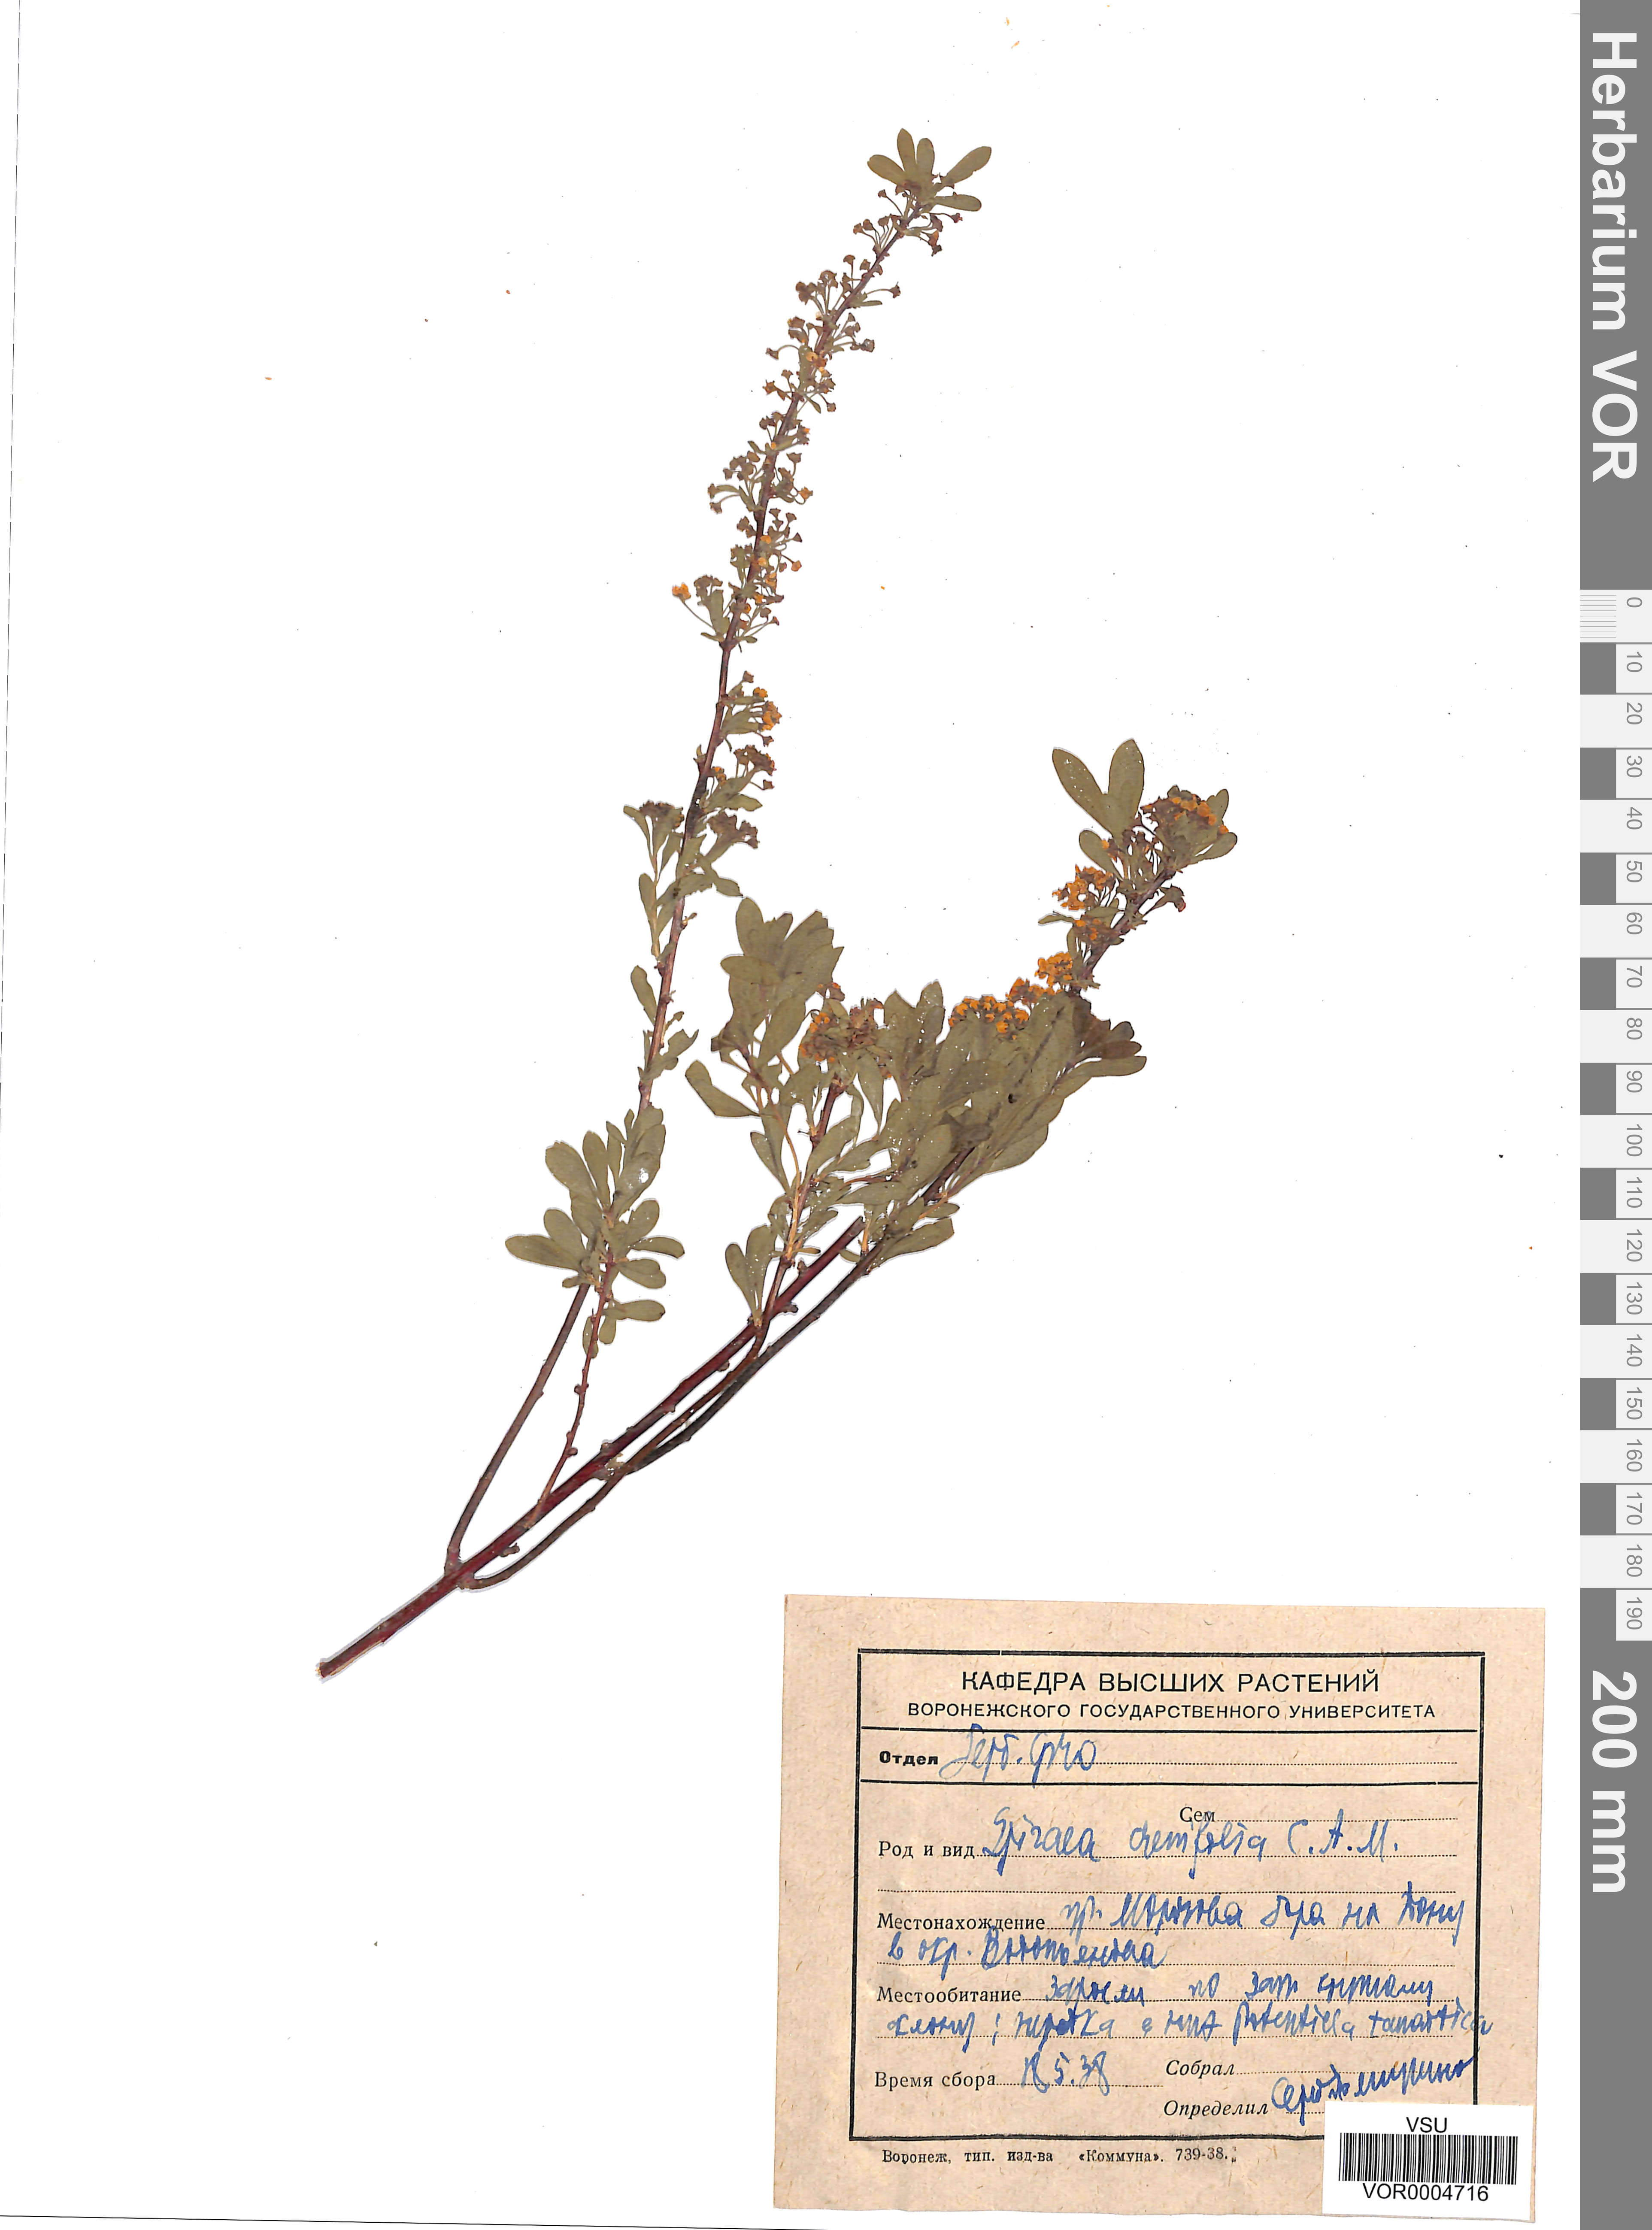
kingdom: Plantae
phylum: Tracheophyta
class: Magnoliopsida
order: Rosales
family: Rosaceae
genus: Spiraea
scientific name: Spiraea crenata
